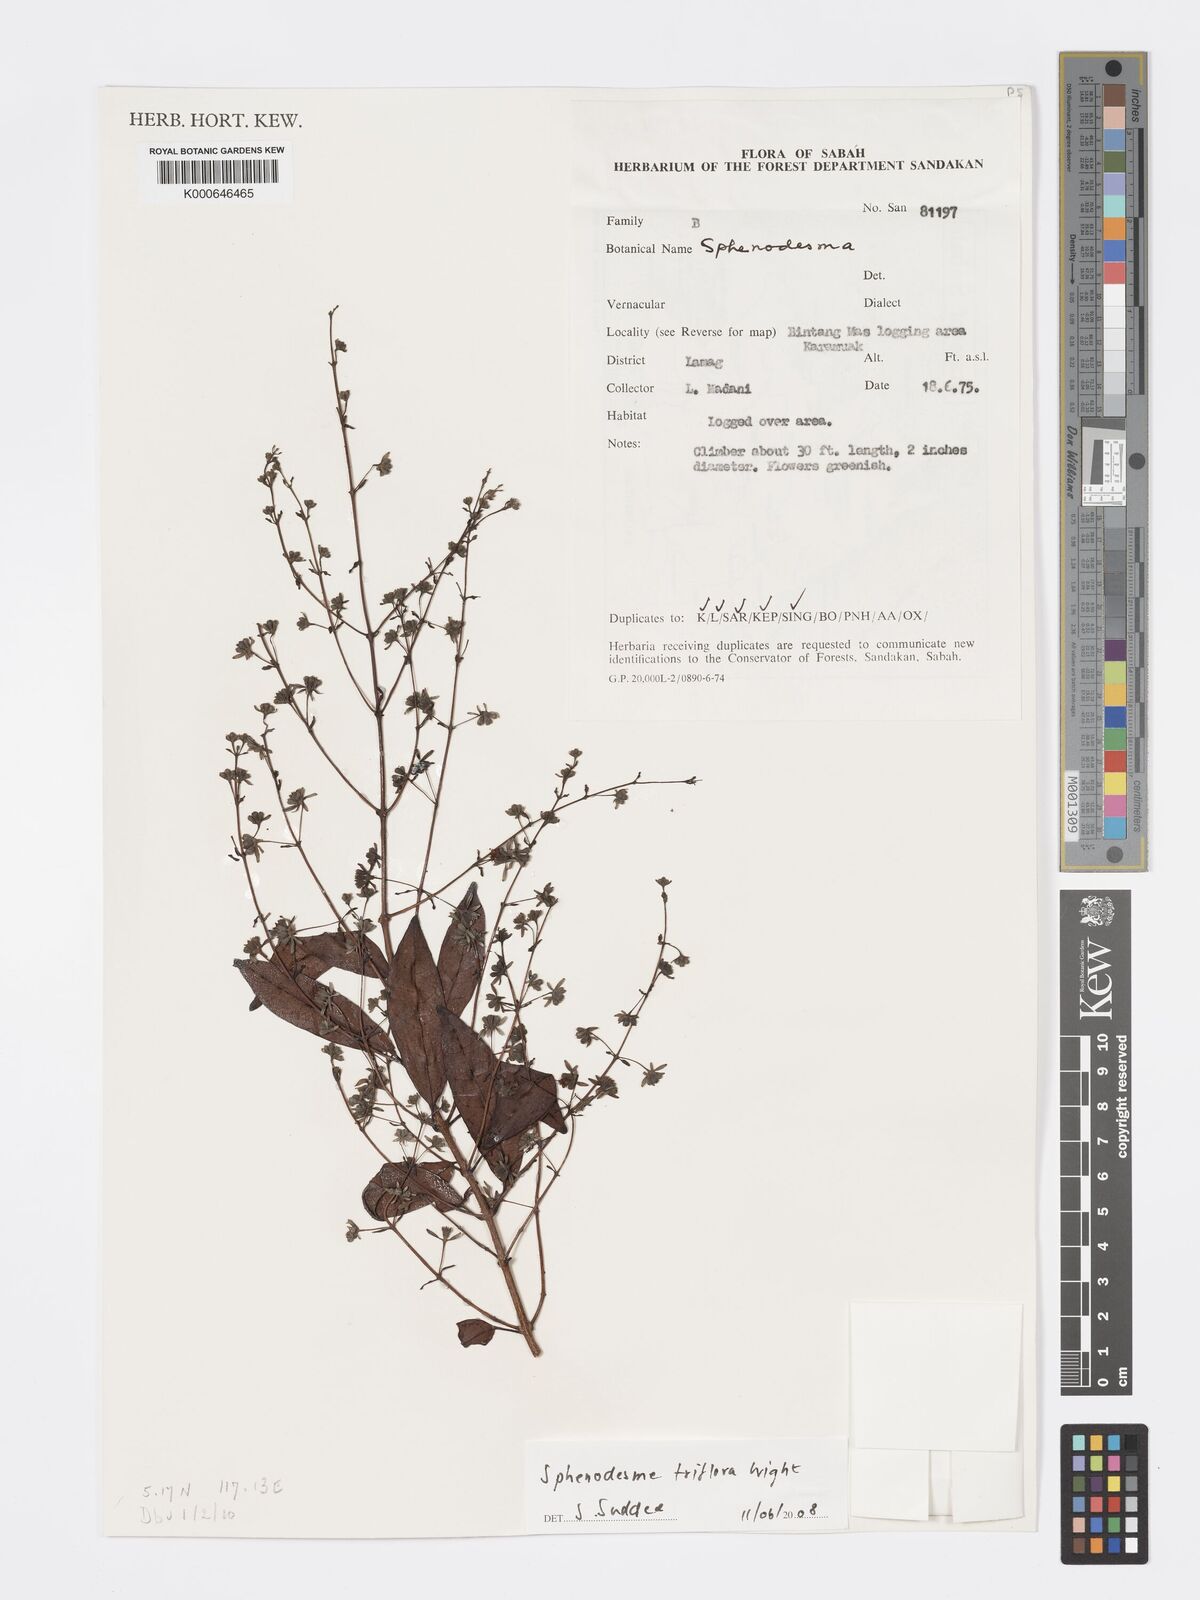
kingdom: Plantae
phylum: Tracheophyta
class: Magnoliopsida
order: Lamiales
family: Lamiaceae
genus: Sphenodesme
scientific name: Sphenodesme triflora
